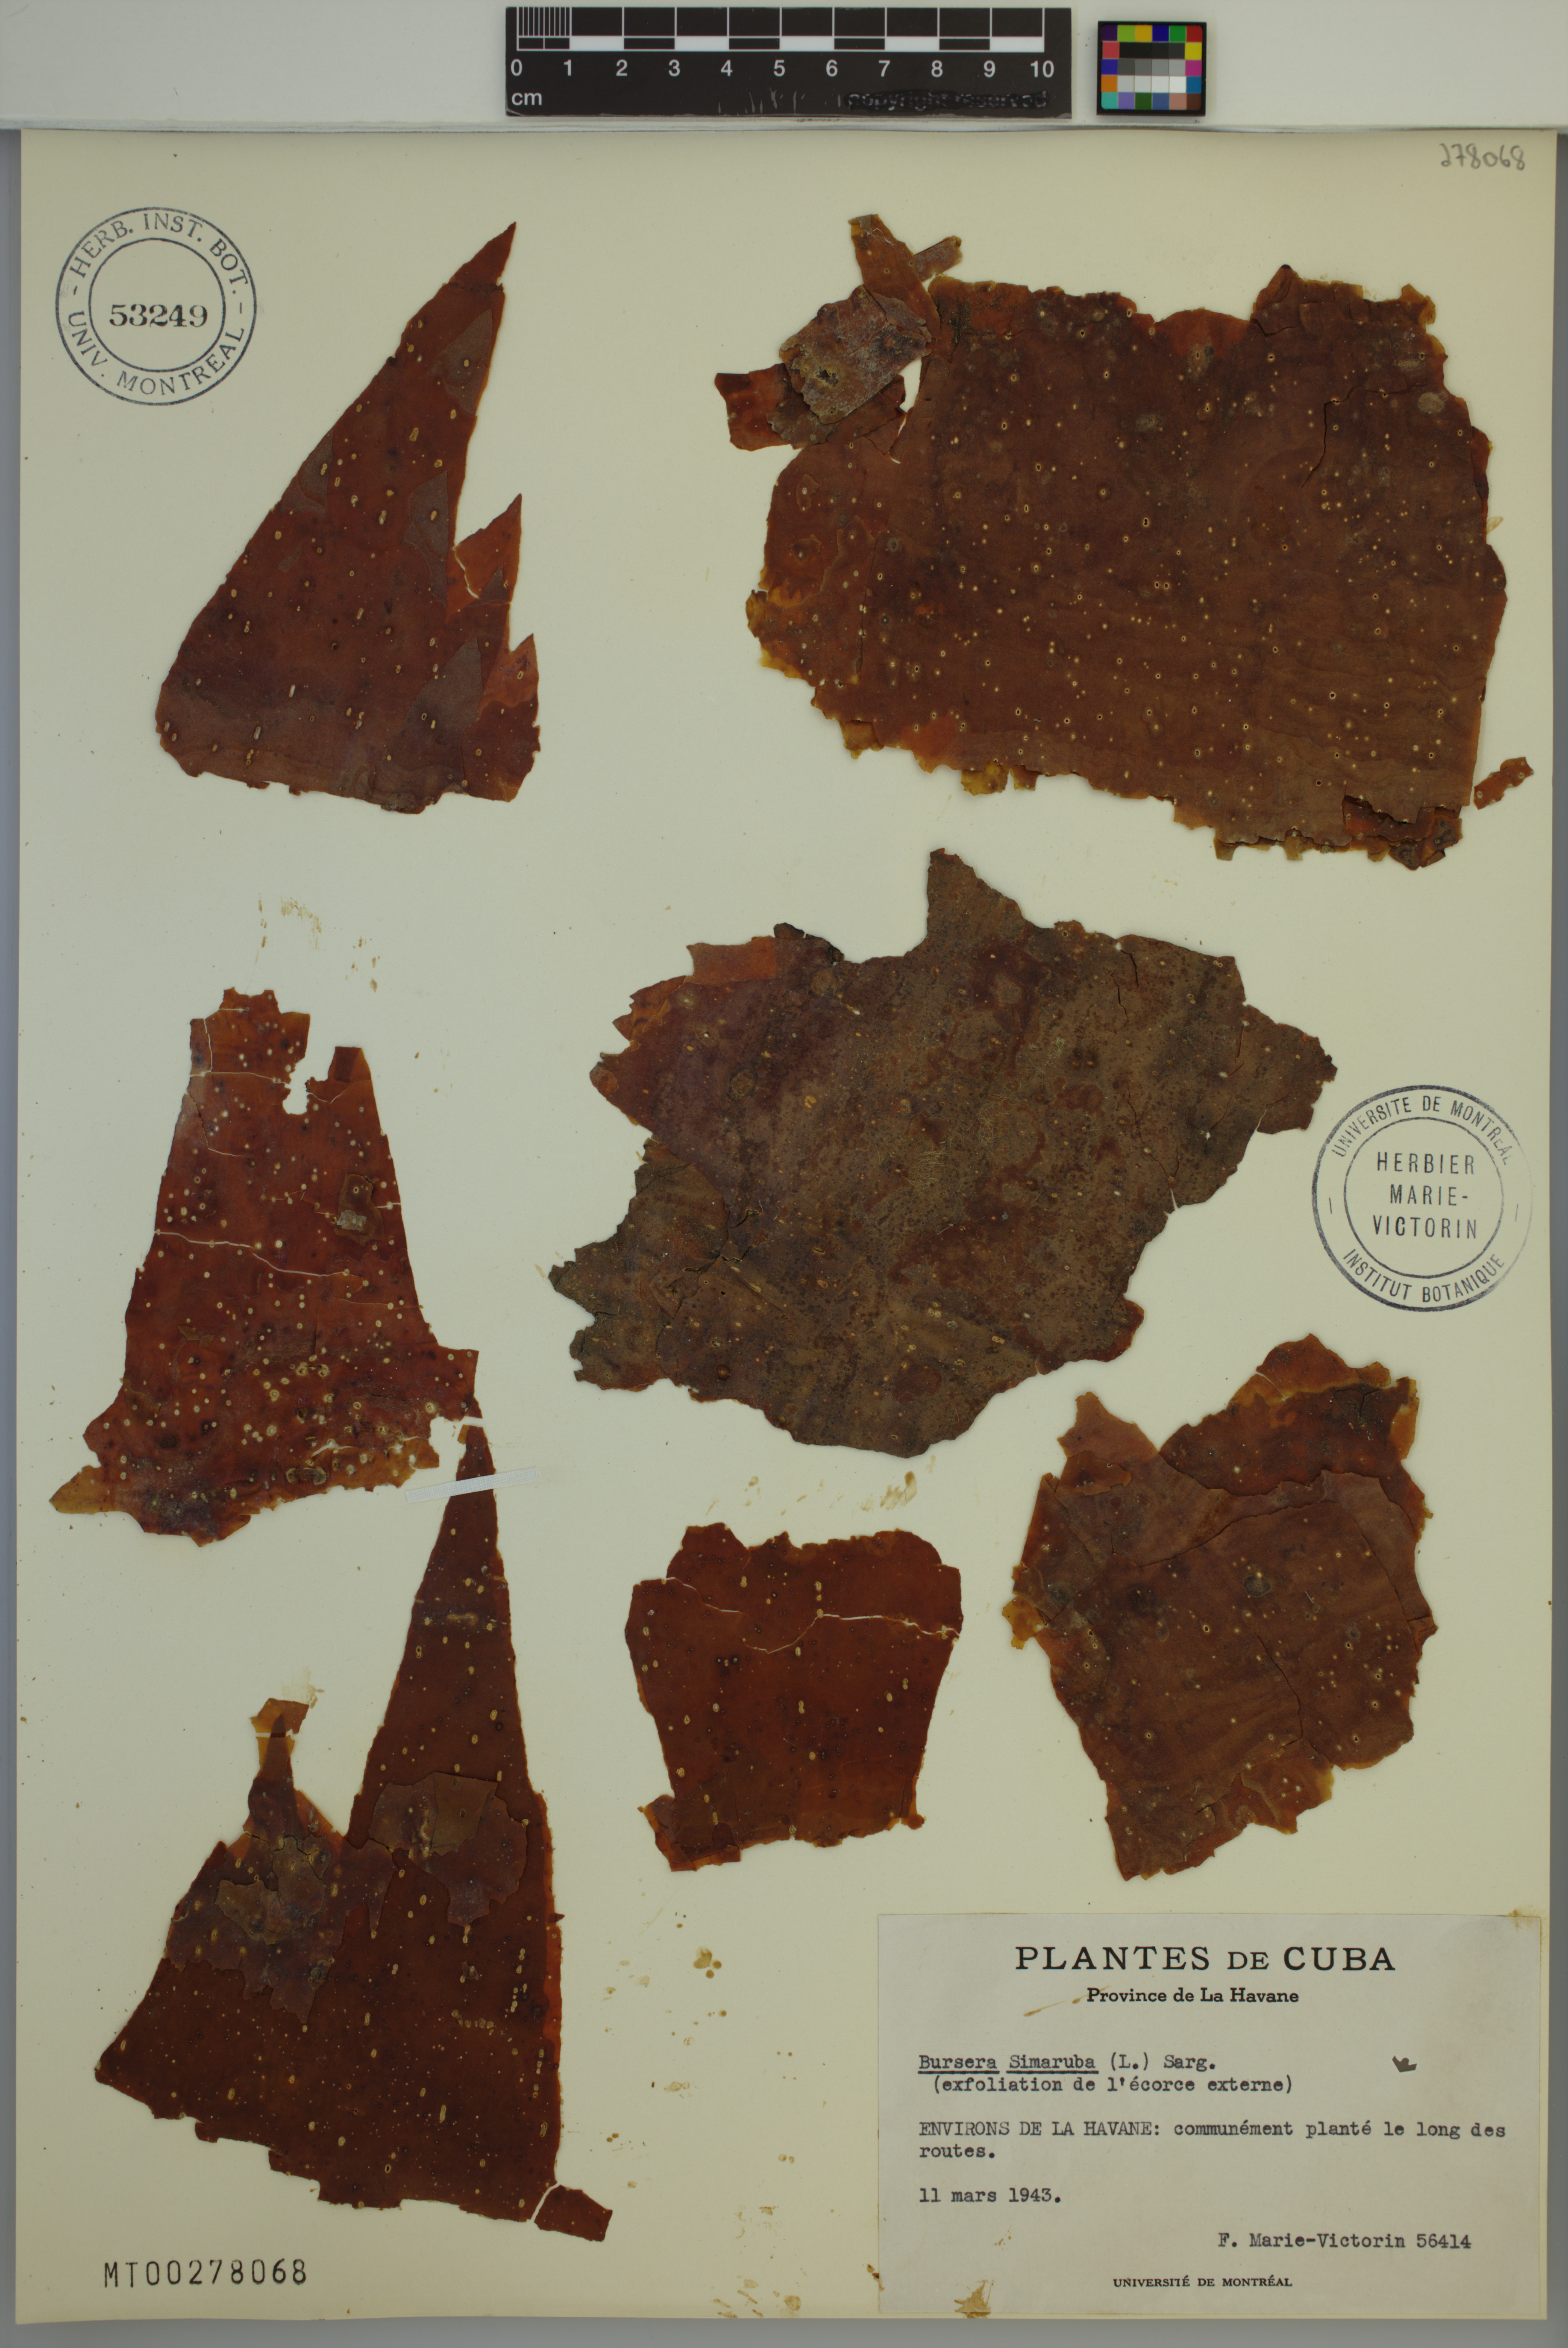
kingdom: Plantae
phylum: Tracheophyta
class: Magnoliopsida
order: Sapindales
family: Burseraceae
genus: Bursera
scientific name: Bursera simaruba
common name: Turpentine tree
